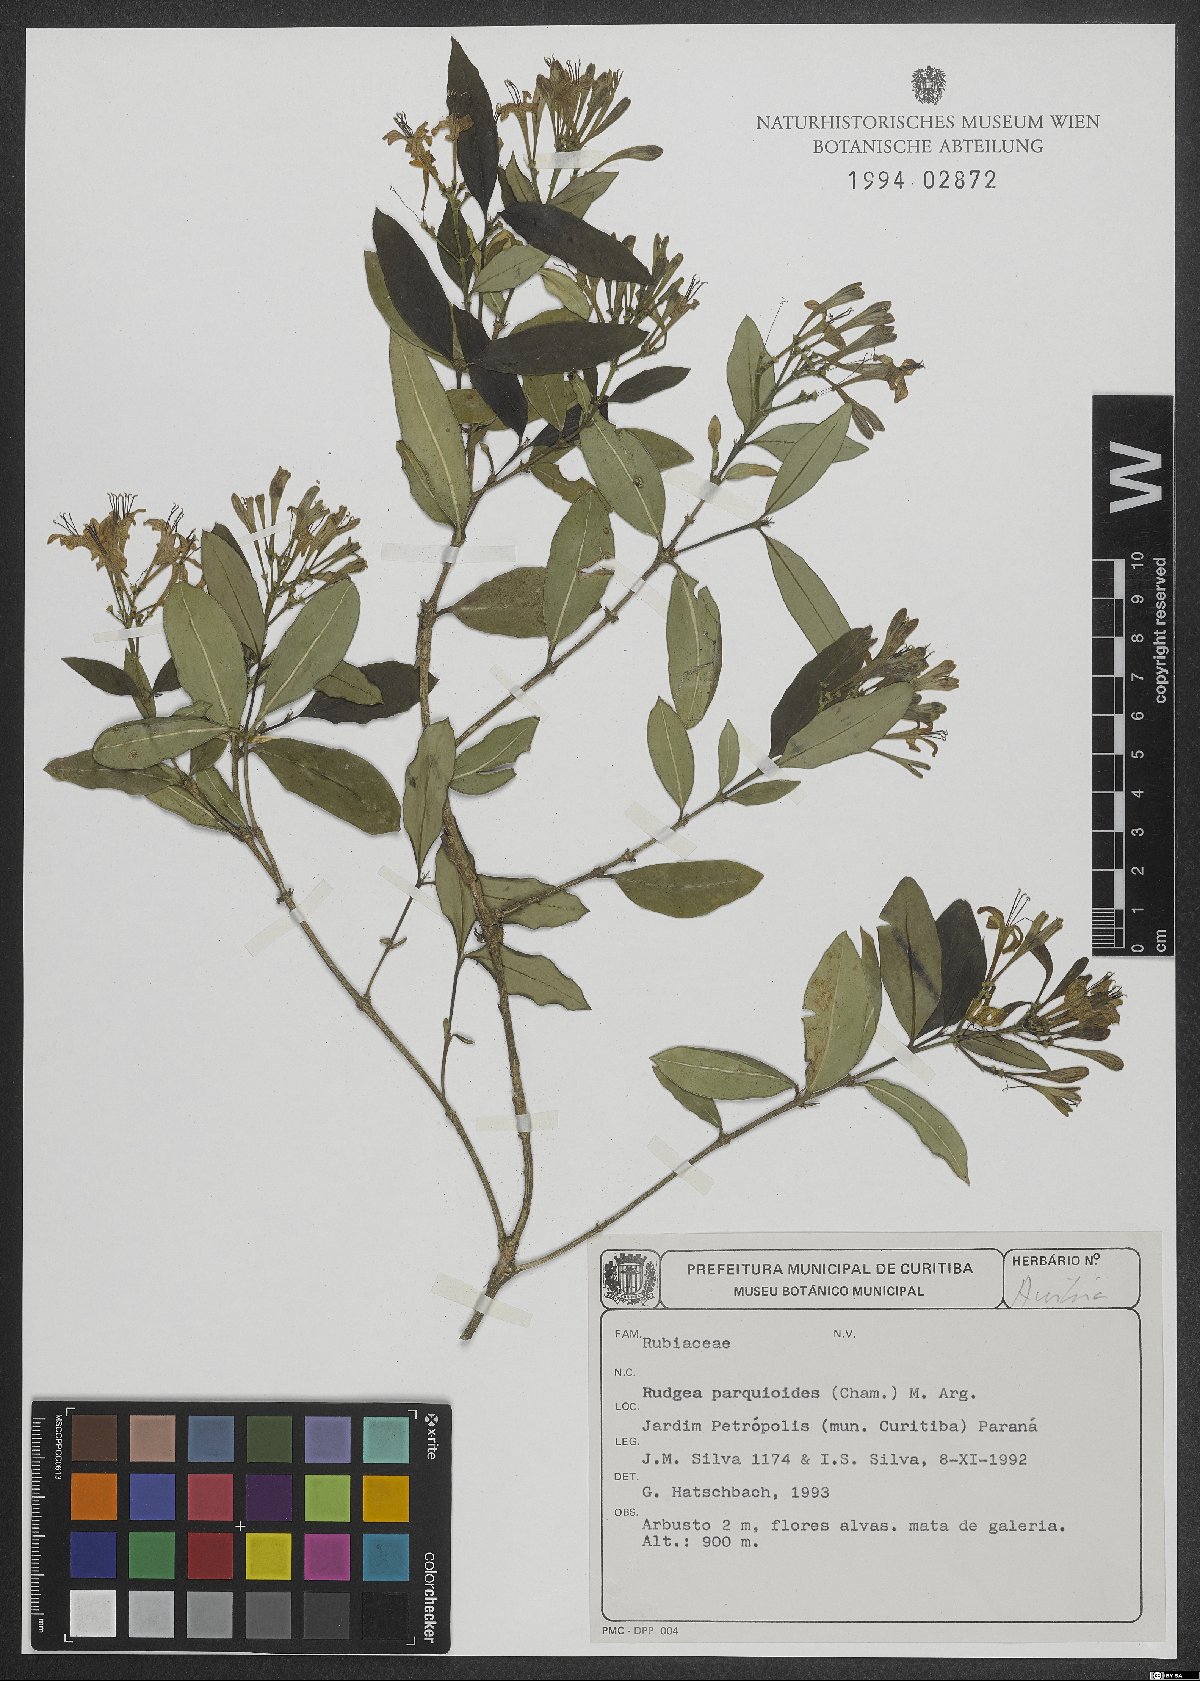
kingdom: Plantae
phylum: Tracheophyta
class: Magnoliopsida
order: Gentianales
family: Rubiaceae
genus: Rudgea
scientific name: Rudgea parquioides
